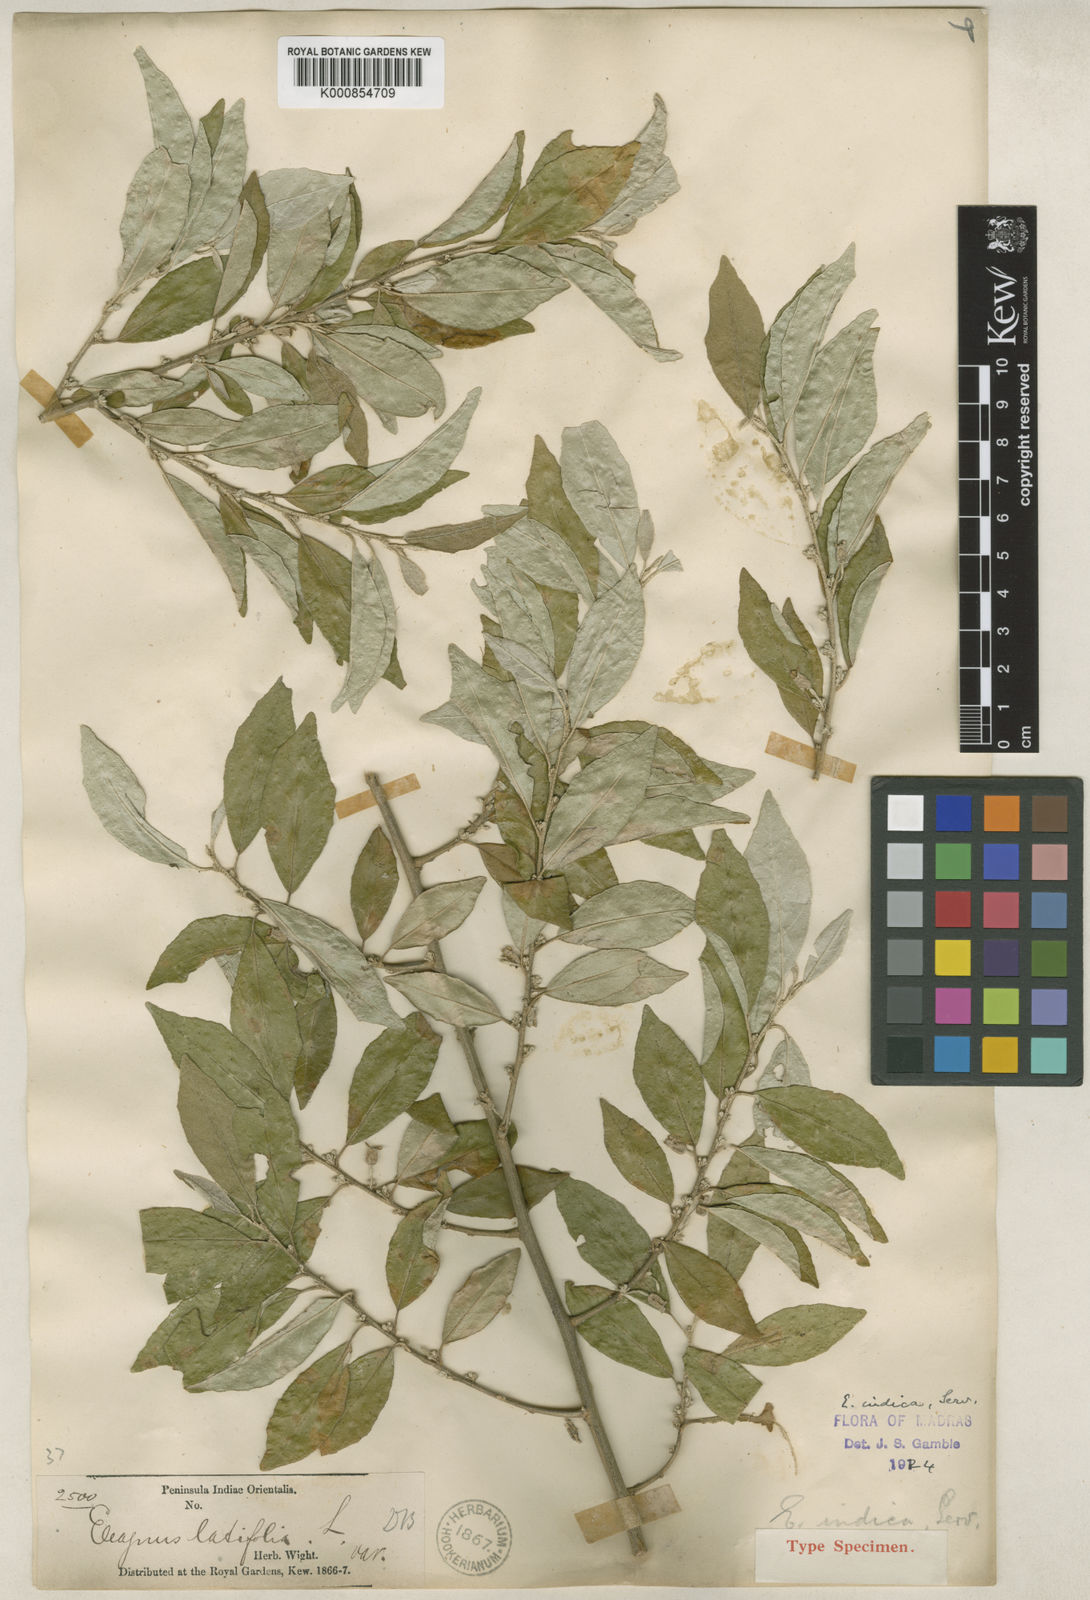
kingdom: Plantae
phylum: Tracheophyta
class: Magnoliopsida
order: Rosales
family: Elaeagnaceae
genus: Elaeagnus
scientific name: Elaeagnus latifolia
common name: Oleaster
